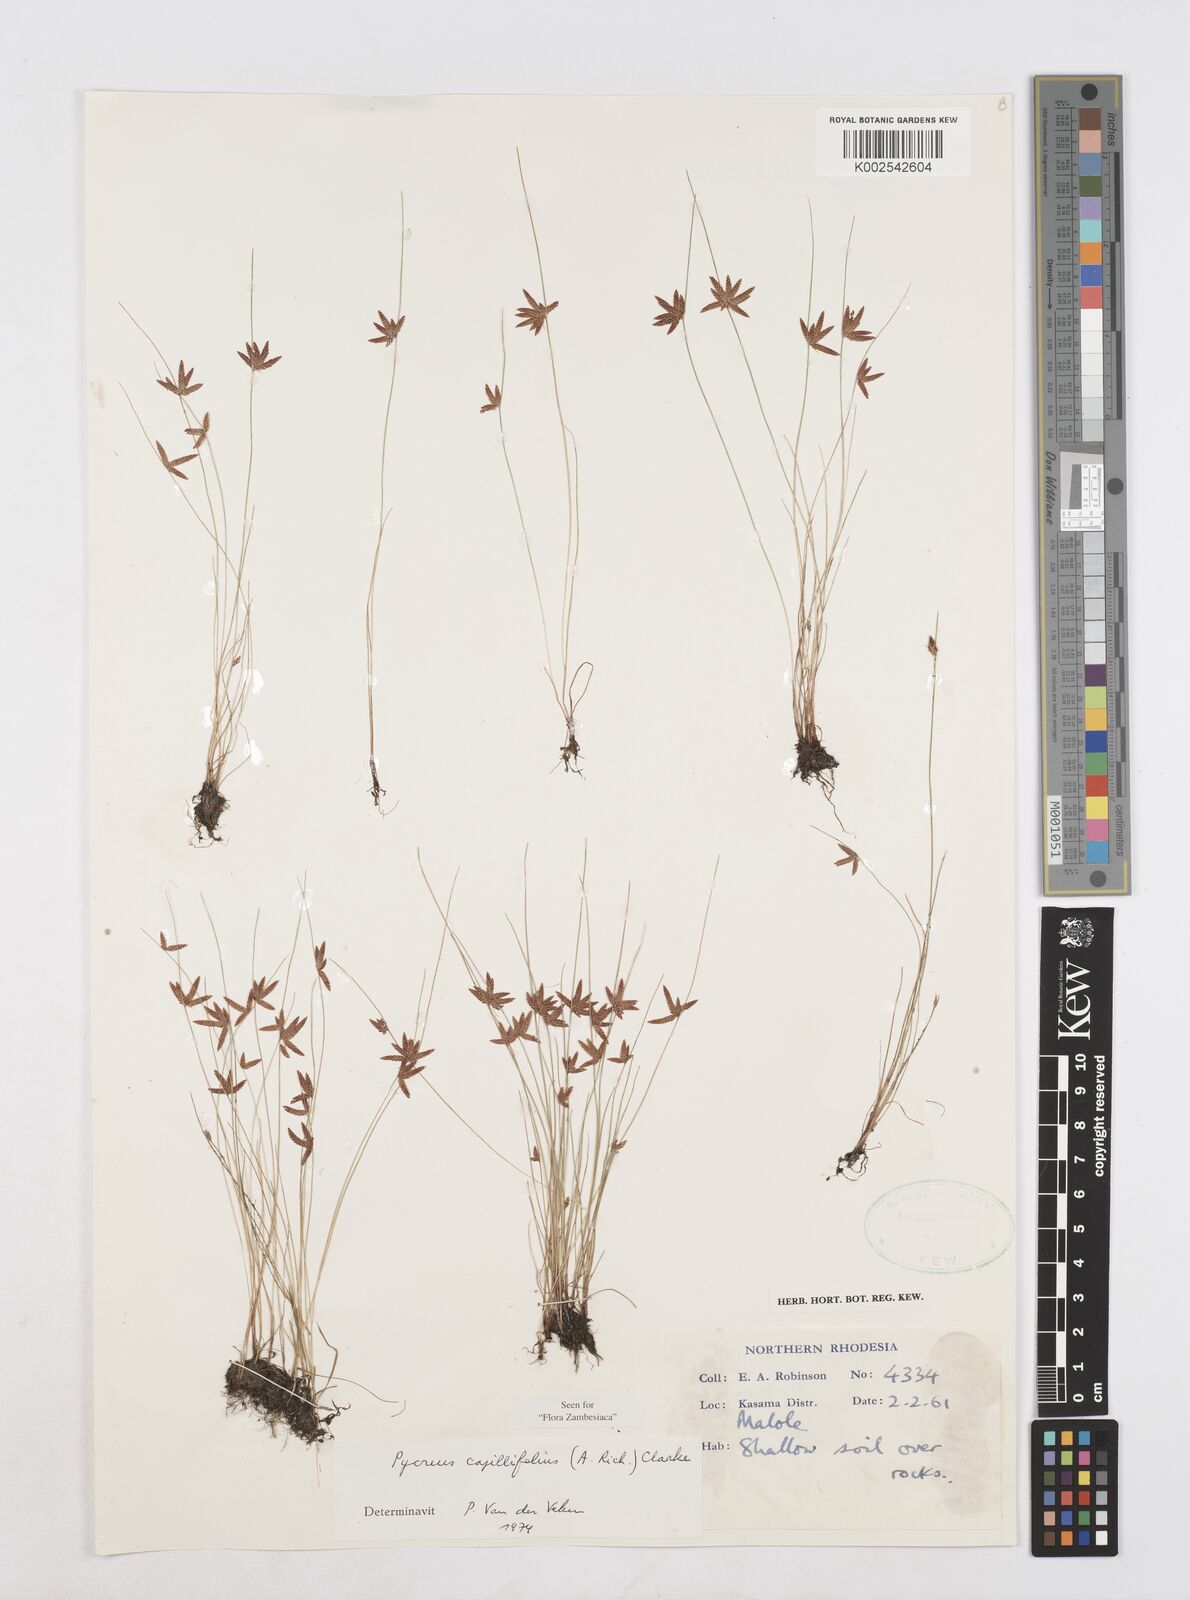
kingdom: Plantae
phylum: Tracheophyta
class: Liliopsida
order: Poales
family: Cyperaceae
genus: Cyperus
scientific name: Cyperus capillifolius
